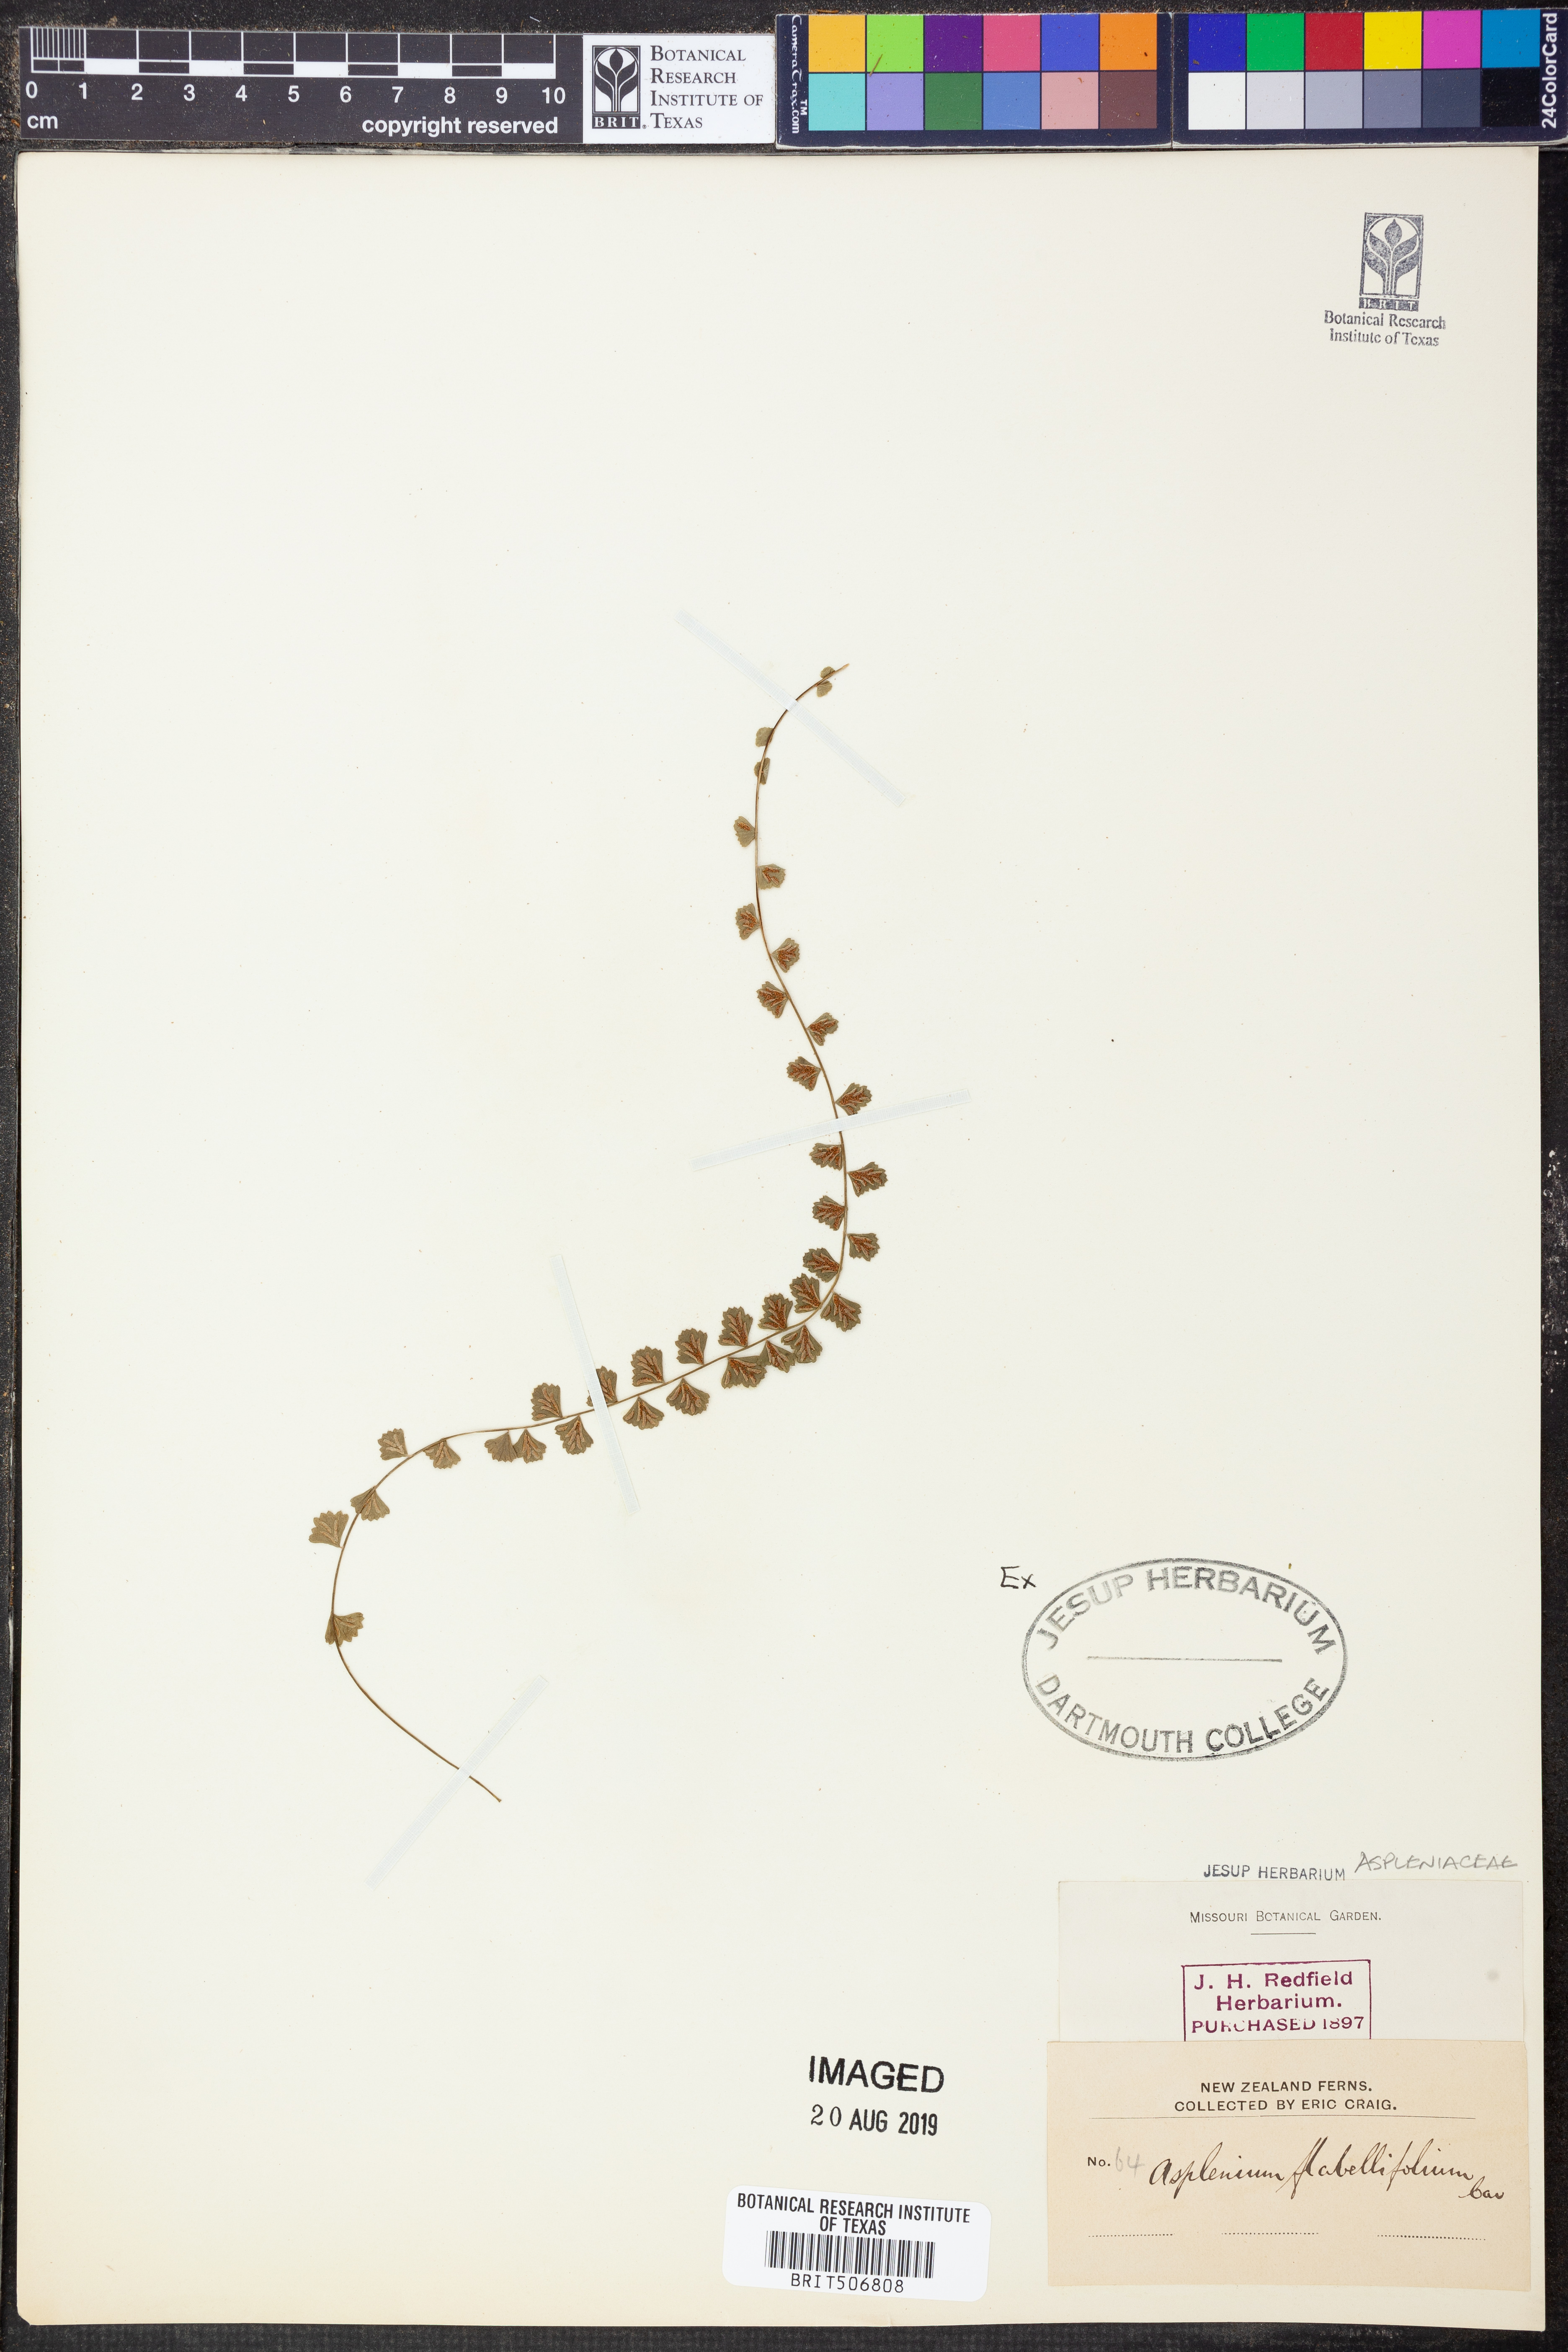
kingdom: Plantae
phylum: Tracheophyta
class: Polypodiopsida
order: Polypodiales
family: Aspleniaceae
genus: Asplenium
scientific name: Asplenium flabellifolium
